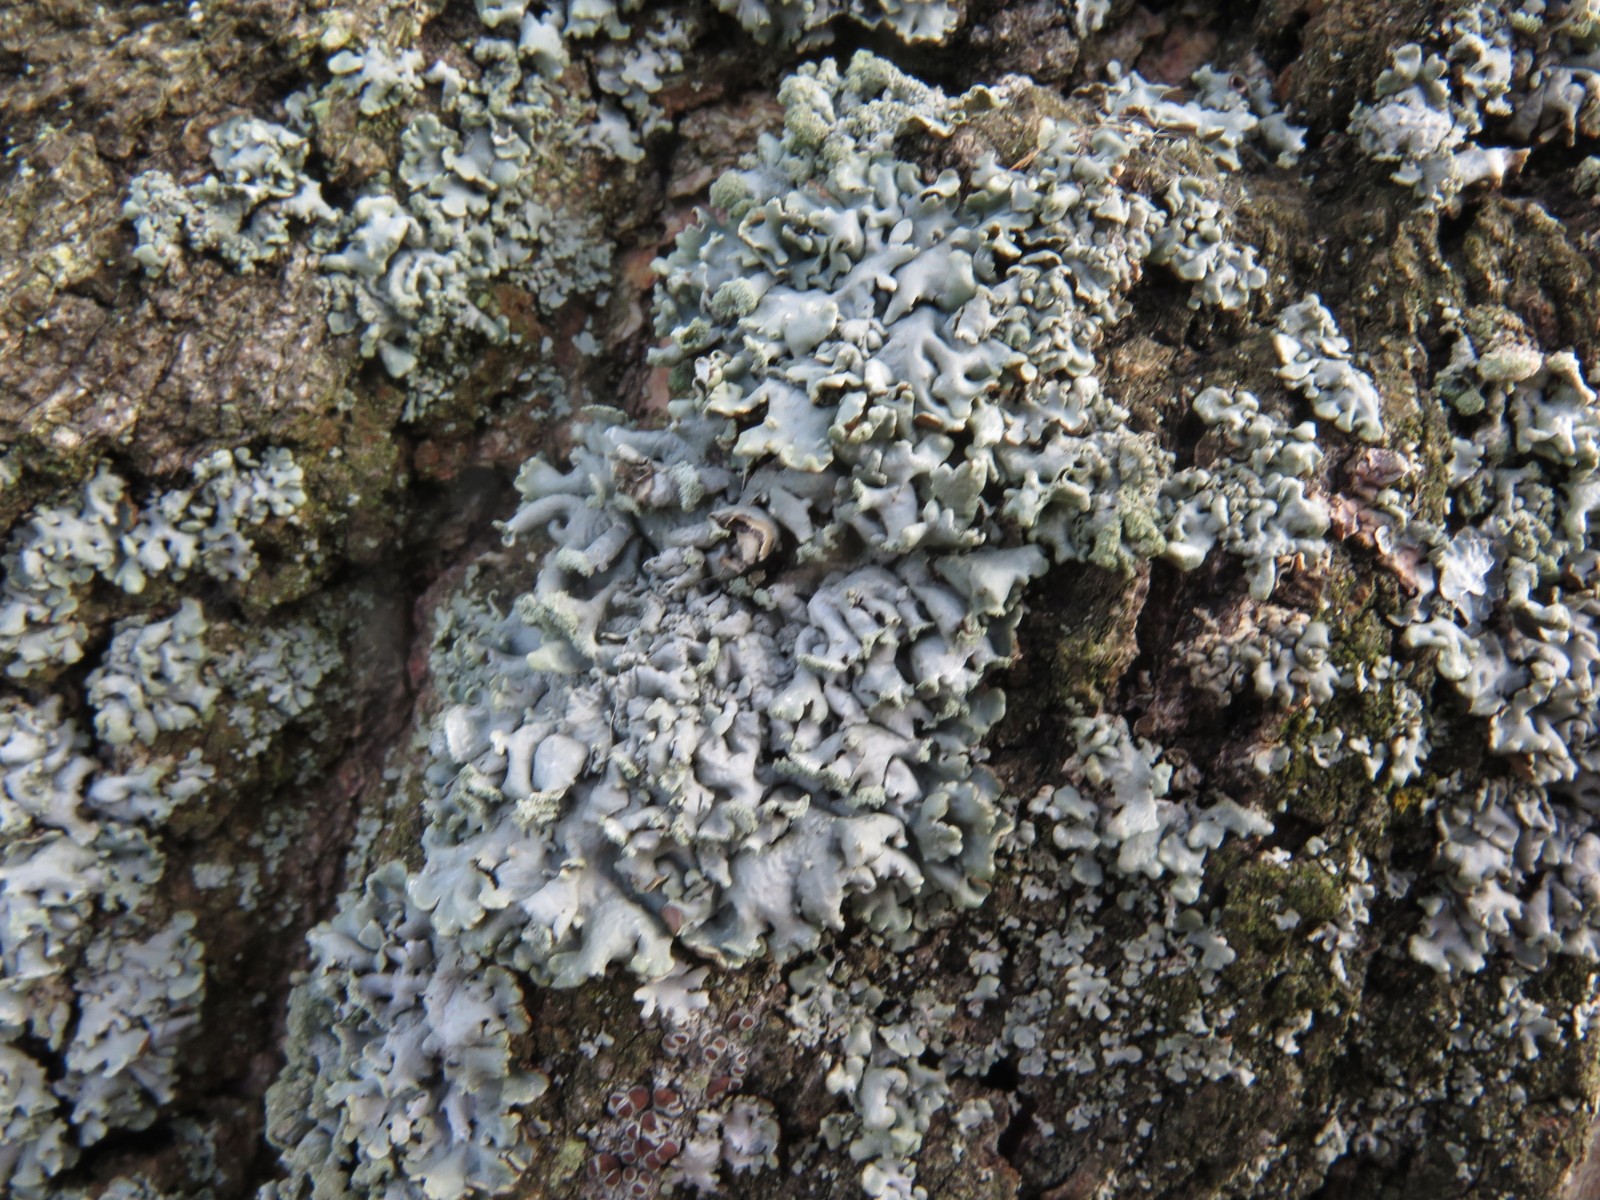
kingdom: Fungi
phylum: Ascomycota
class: Lecanoromycetes
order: Lecanorales
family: Parmeliaceae
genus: Hypogymnia
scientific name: Hypogymnia physodes
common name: almindelig kvistlav
